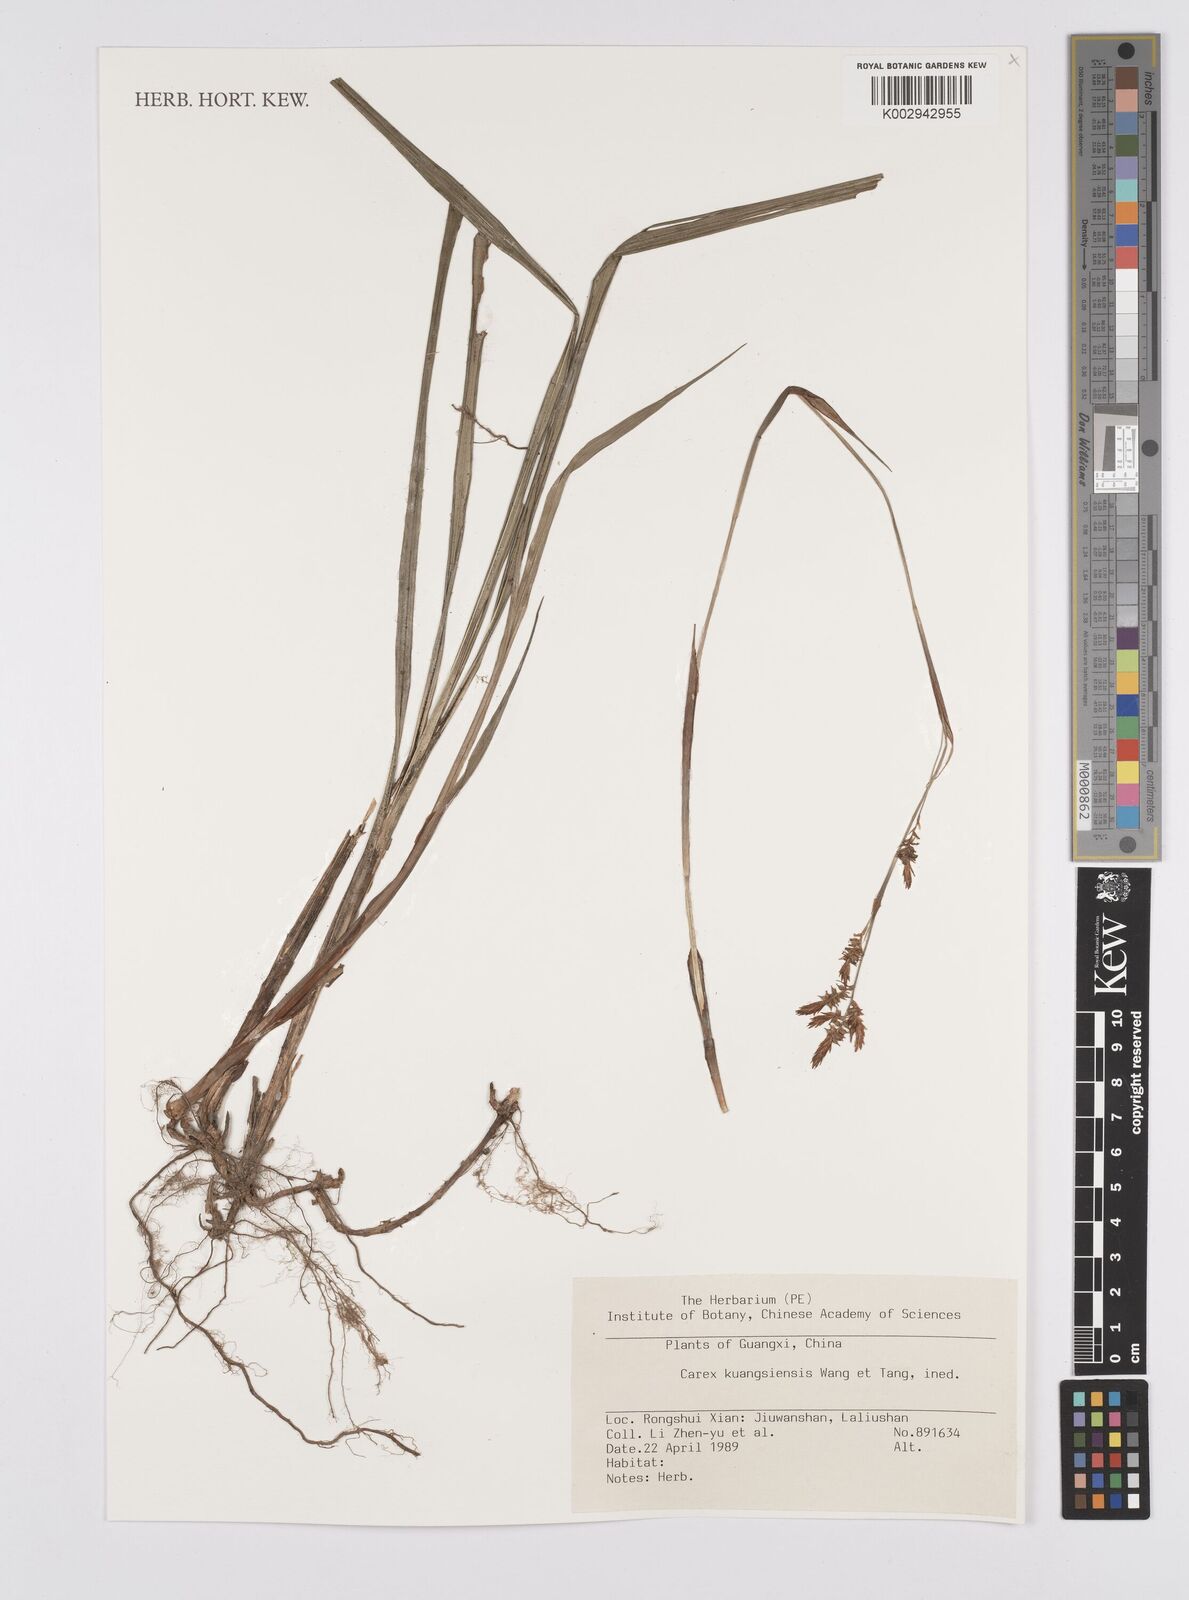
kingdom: Plantae
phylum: Tracheophyta
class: Liliopsida
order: Poales
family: Cyperaceae
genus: Carex
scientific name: Carex
